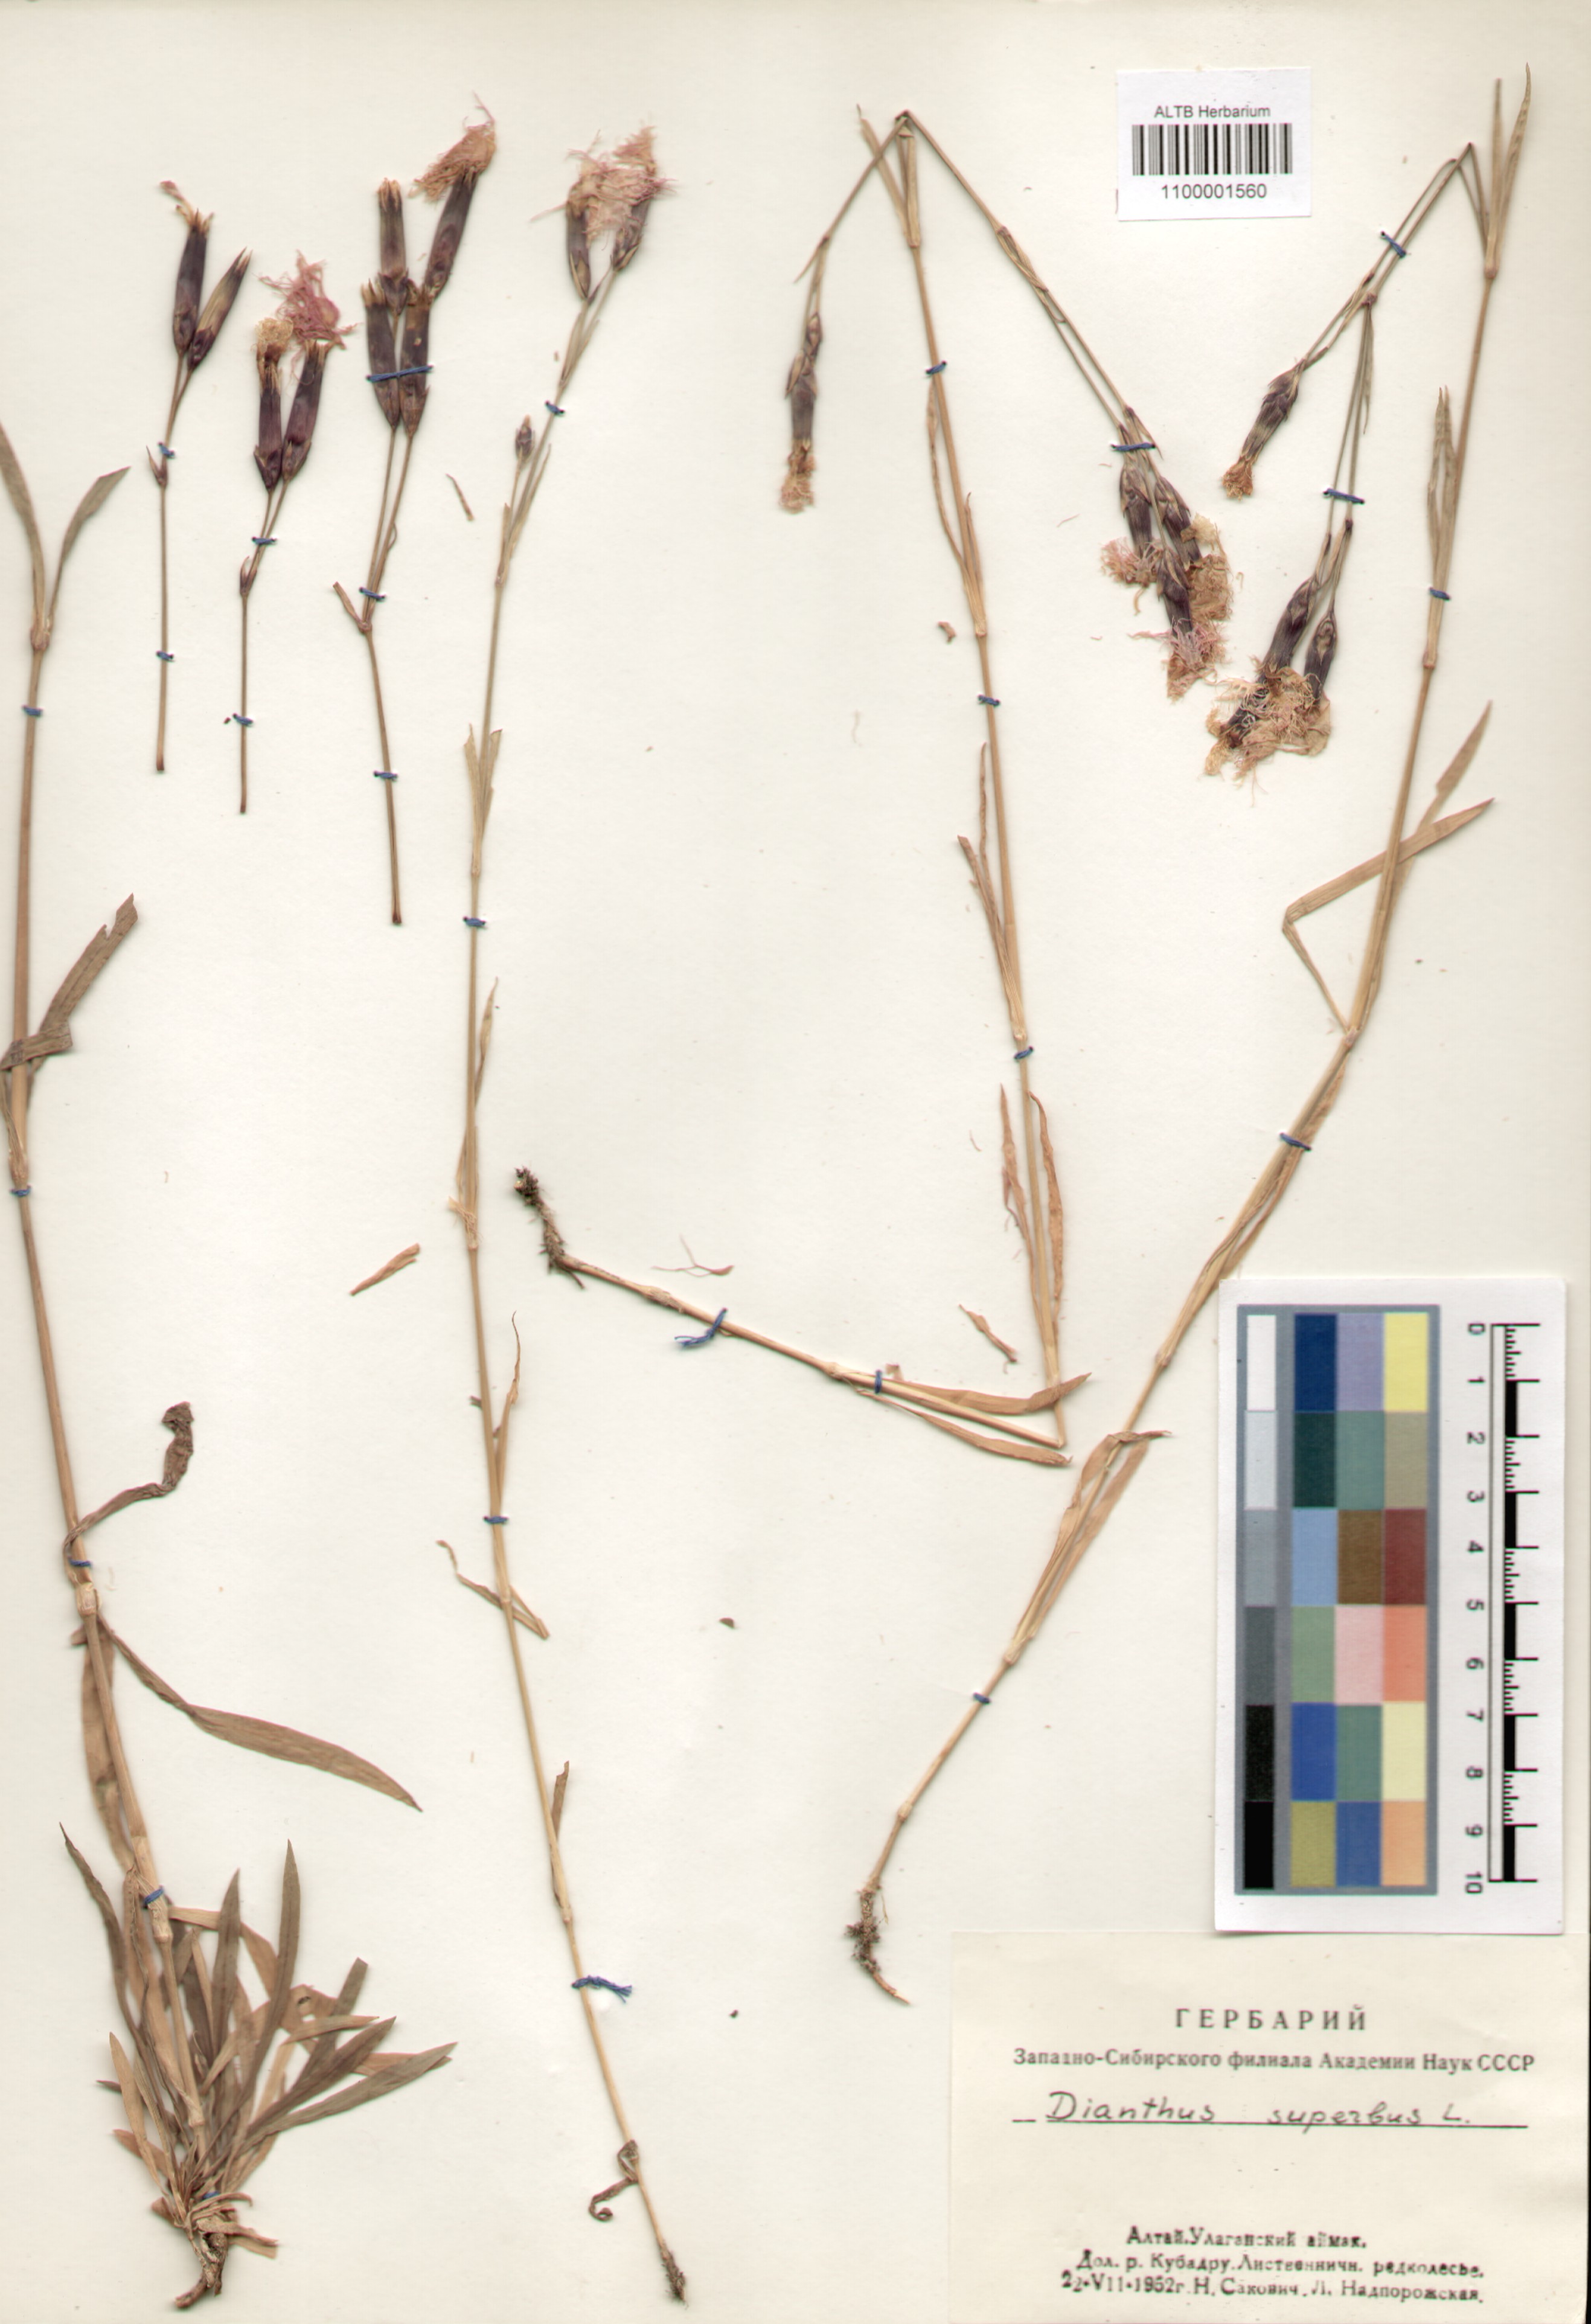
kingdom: Plantae
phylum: Tracheophyta
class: Magnoliopsida
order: Caryophyllales
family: Caryophyllaceae
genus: Dianthus
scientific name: Dianthus superbus
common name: Fringed pink
